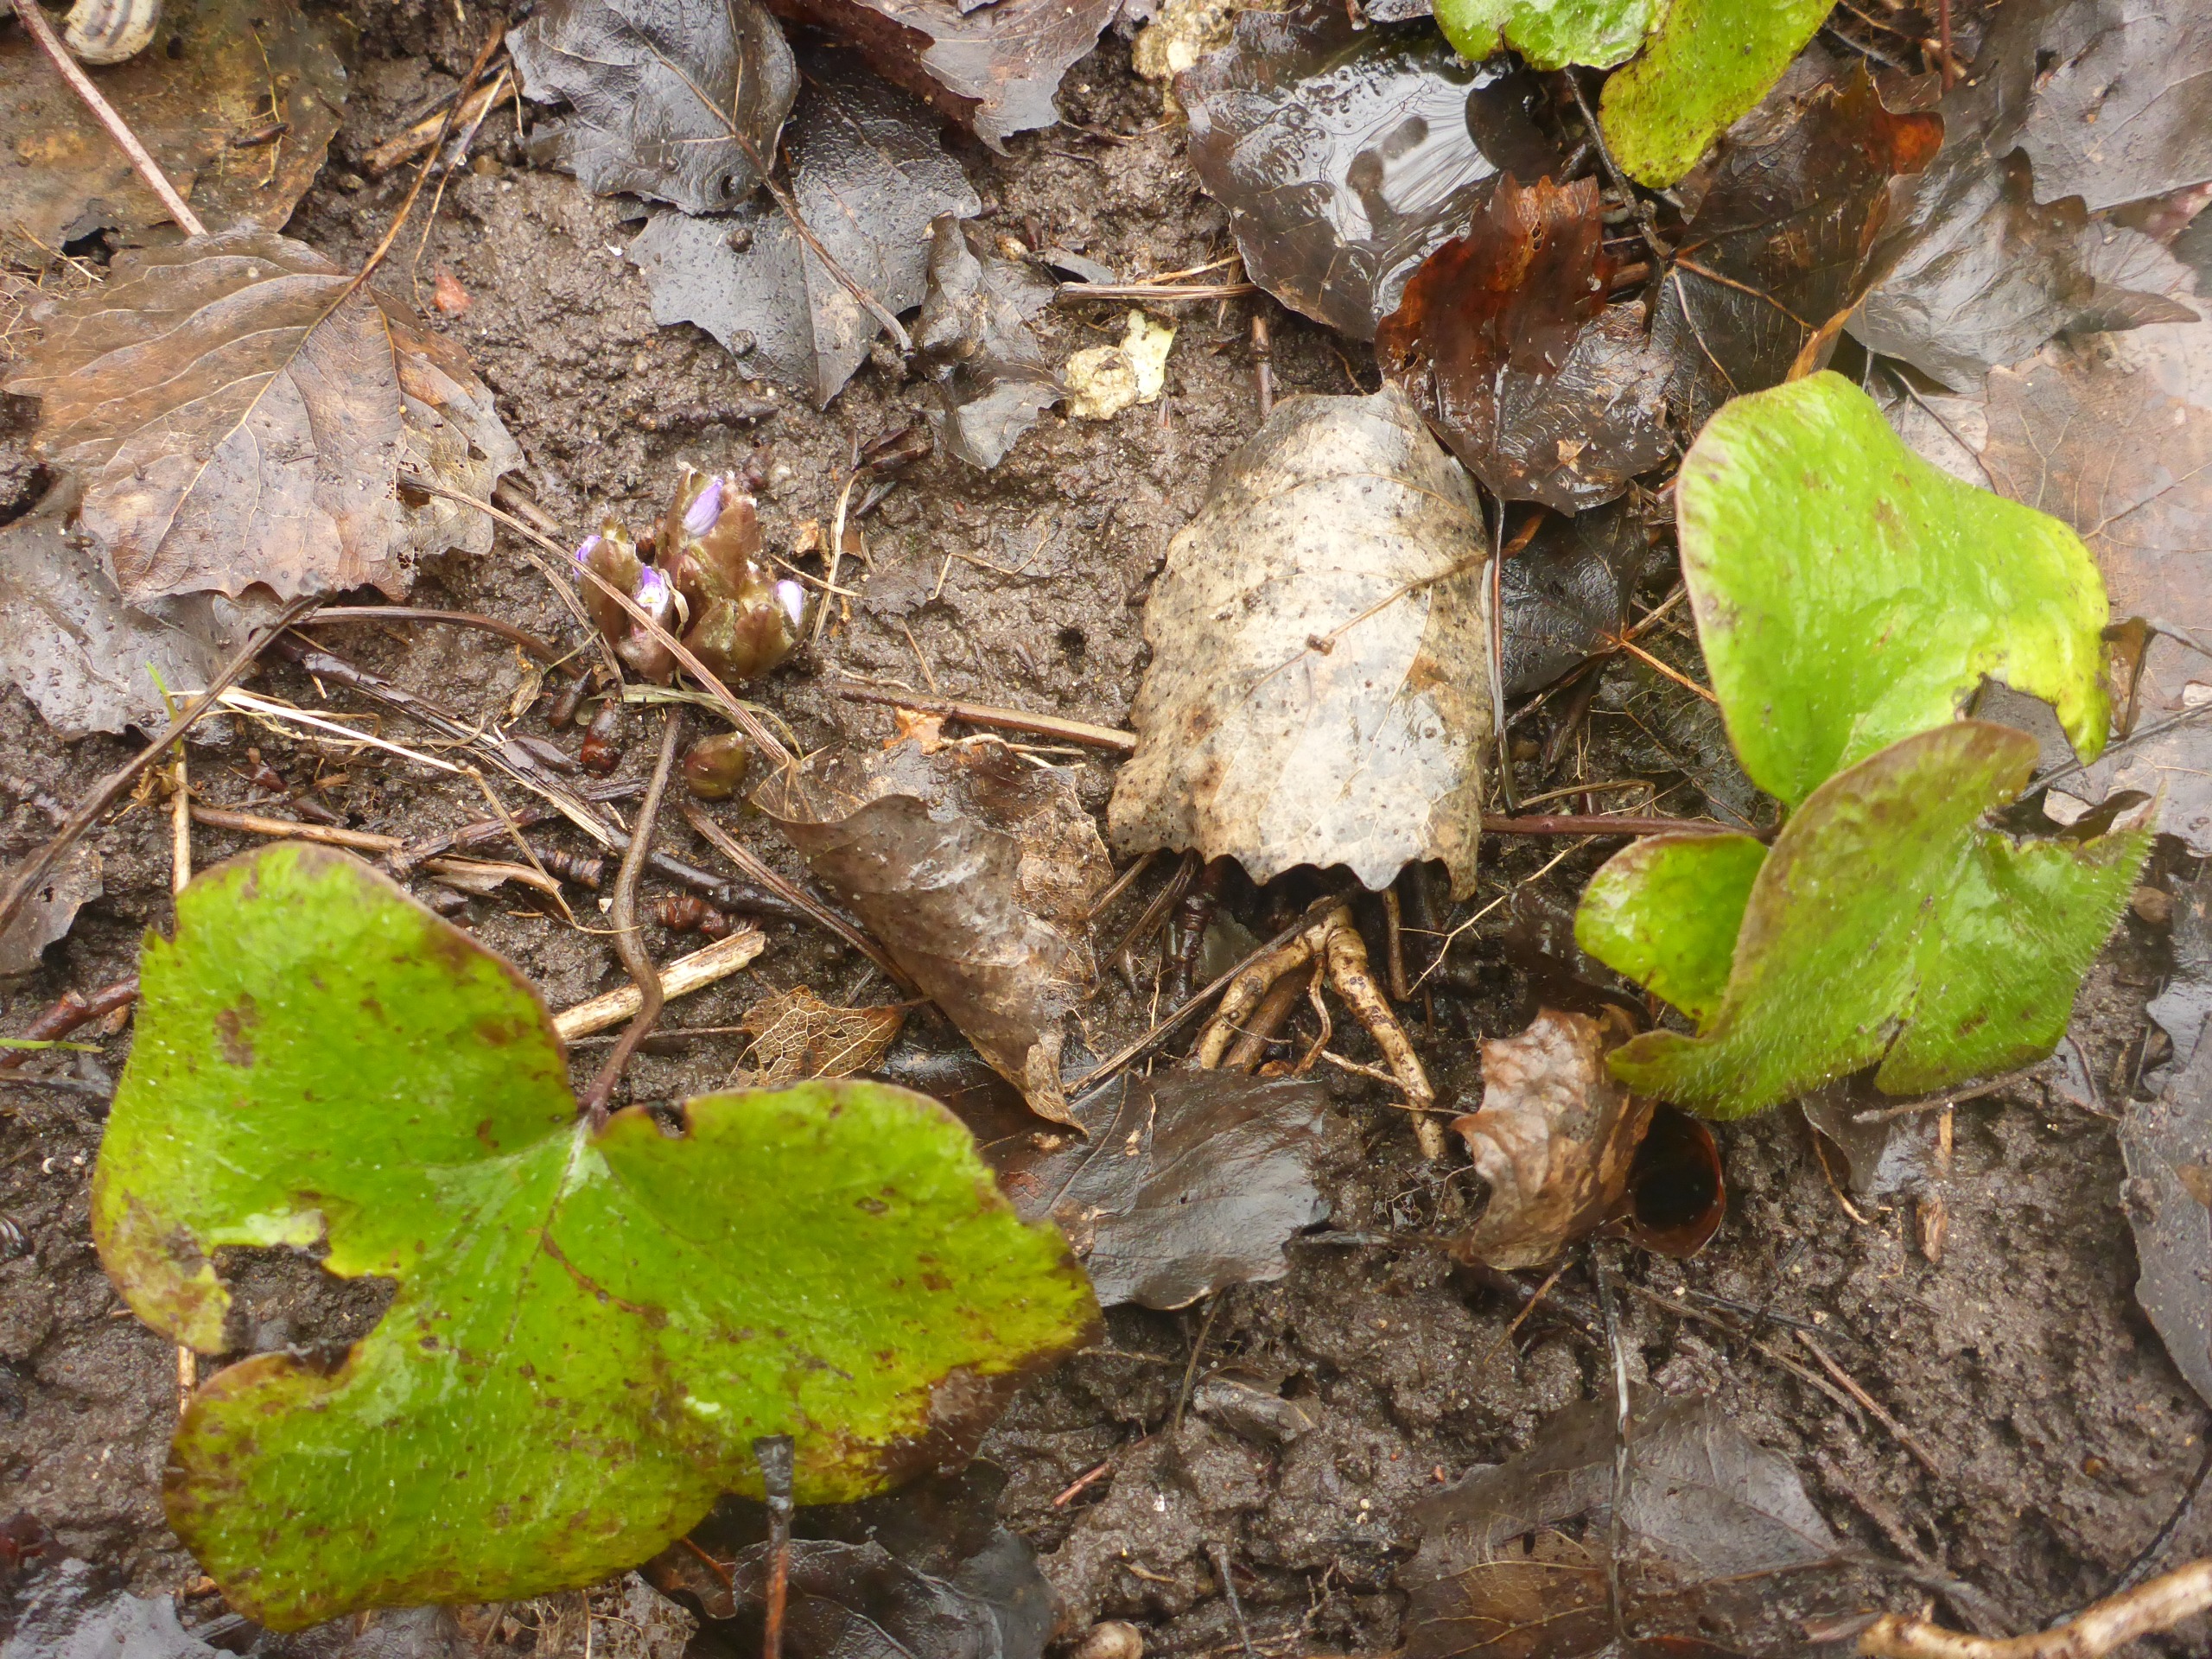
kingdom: Plantae
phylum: Tracheophyta
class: Magnoliopsida
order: Ranunculales
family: Ranunculaceae
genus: Hepatica
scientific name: Hepatica nobilis
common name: Blå anemone
